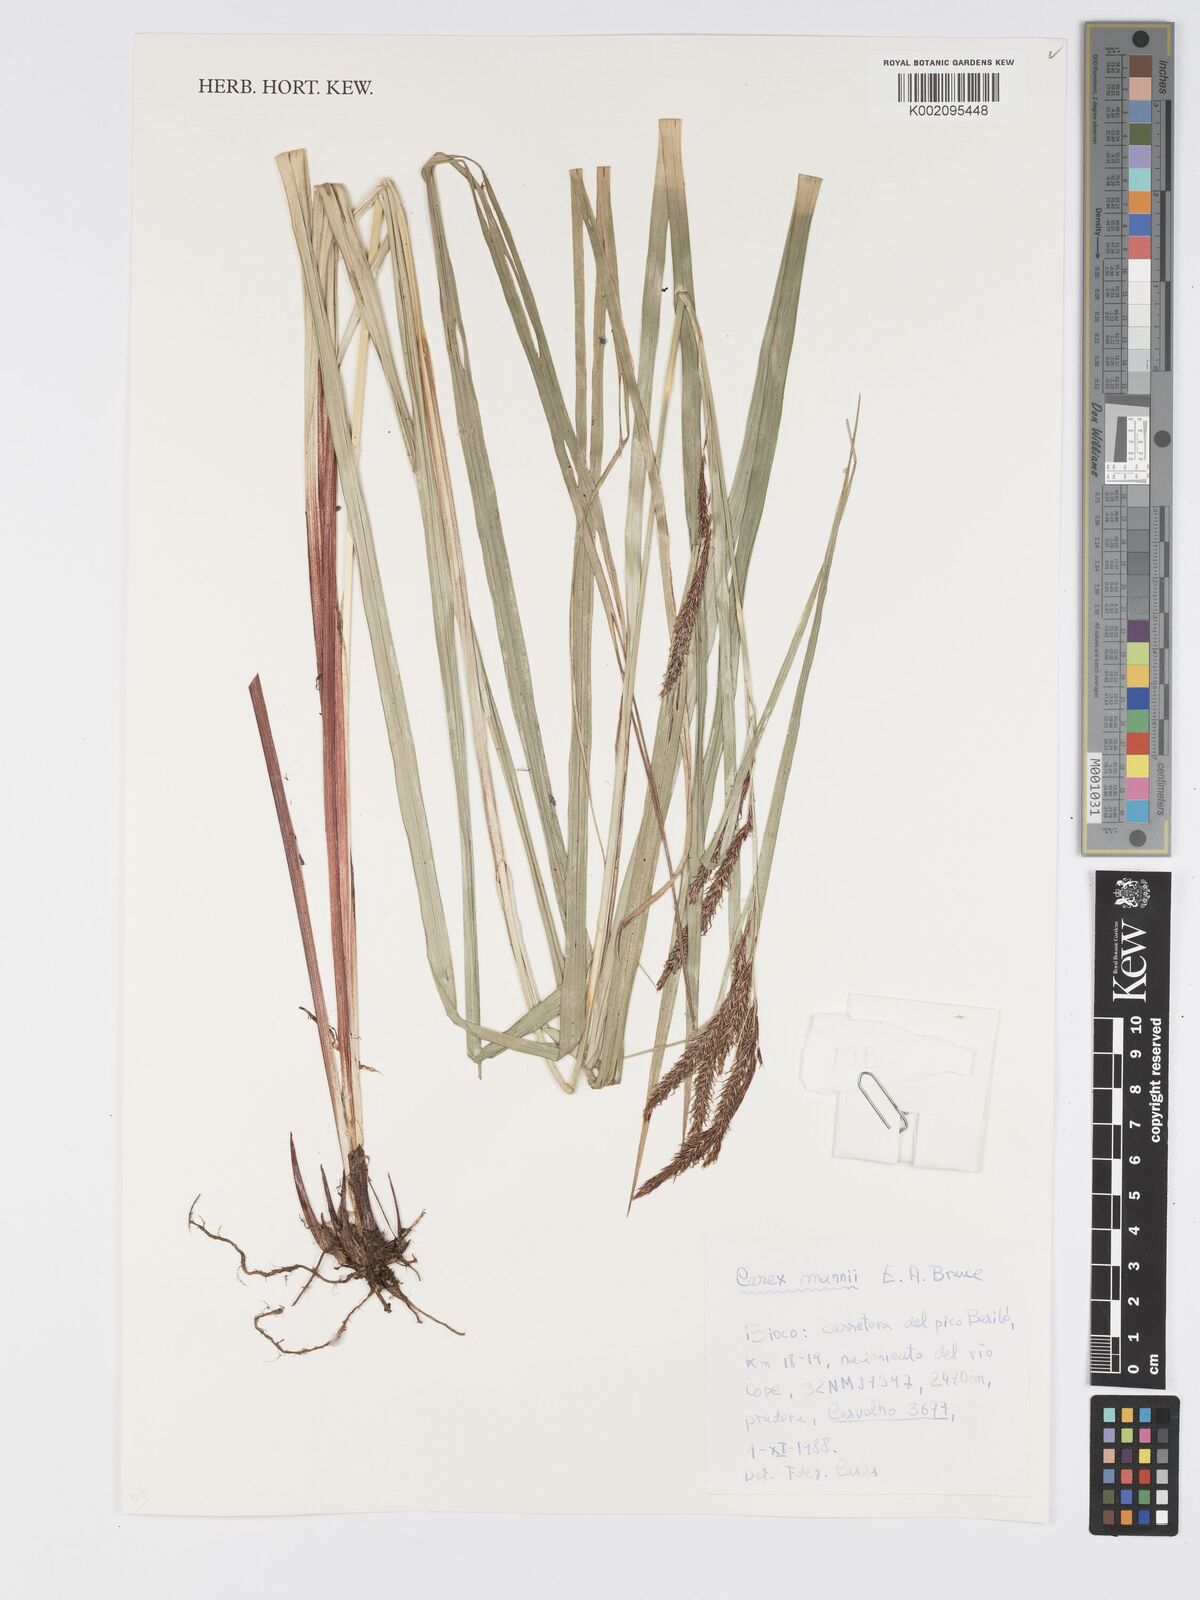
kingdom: Plantae
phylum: Tracheophyta
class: Liliopsida
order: Poales
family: Cyperaceae
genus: Carex
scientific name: Carex mannii
